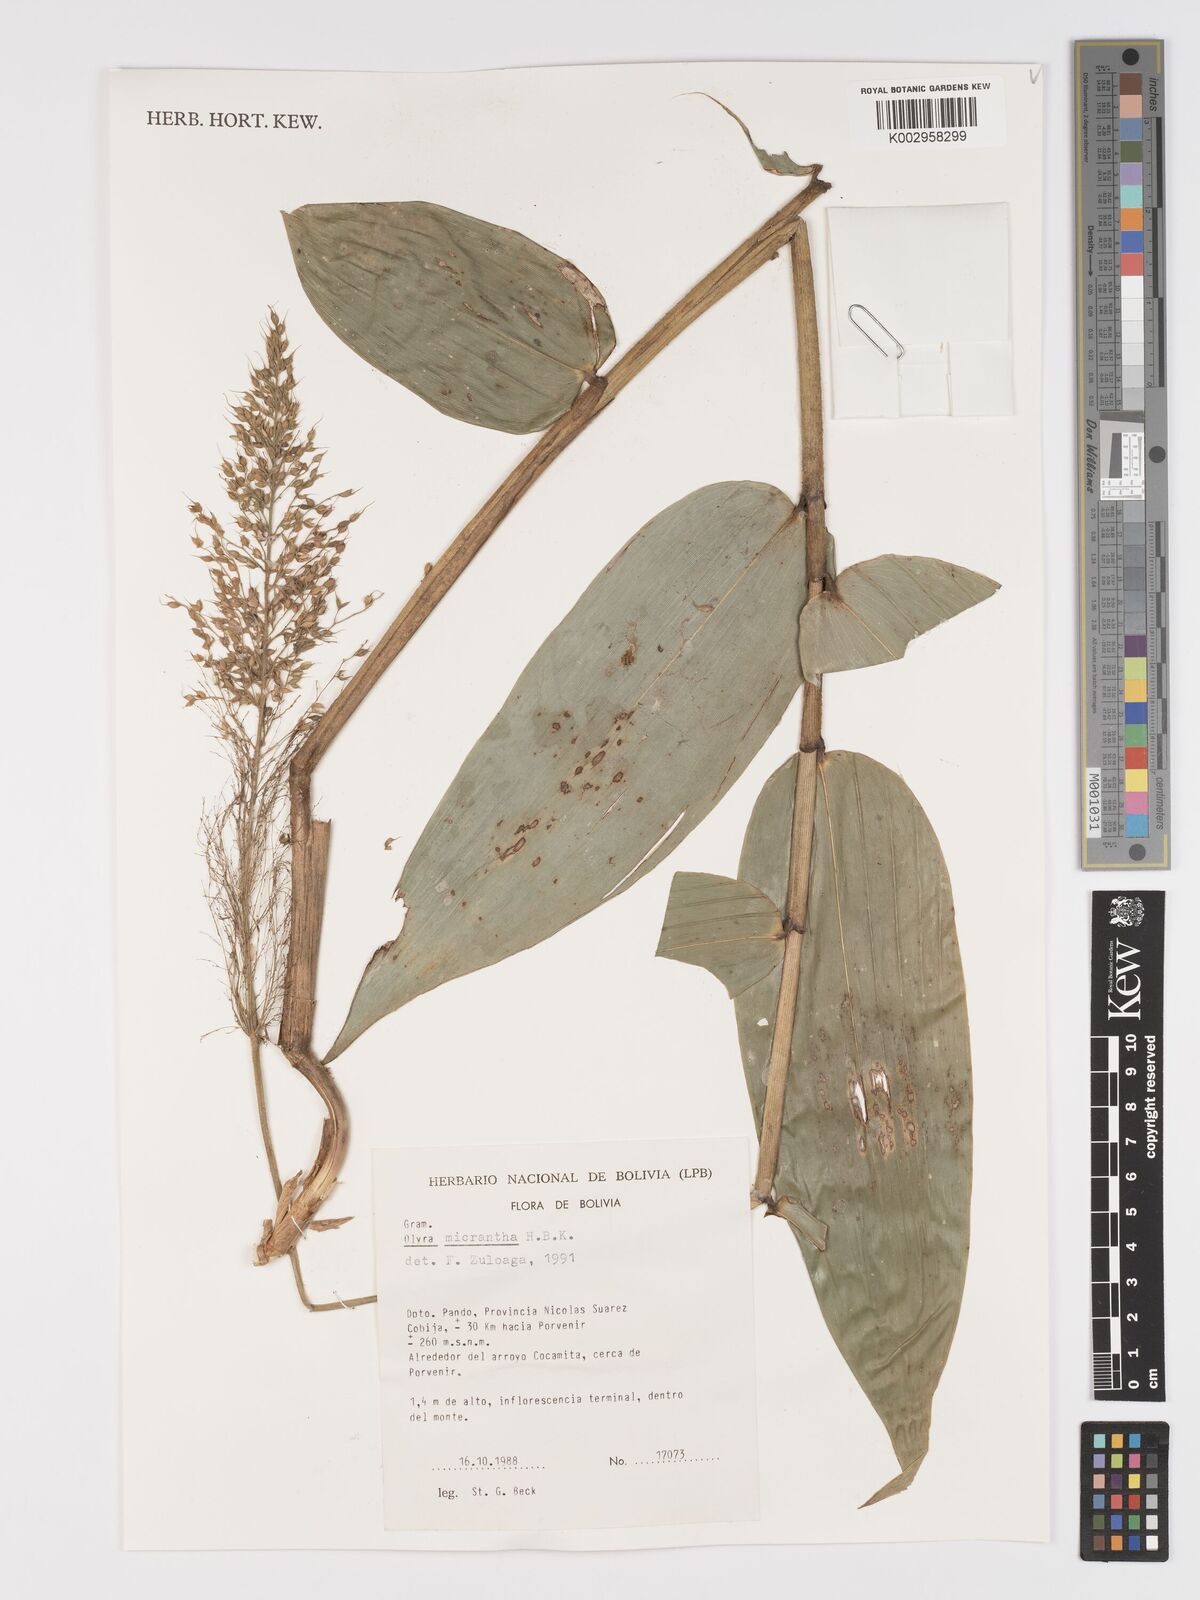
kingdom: Plantae
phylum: Tracheophyta
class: Liliopsida
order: Poales
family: Poaceae
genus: Taquara
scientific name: Taquara micrantha
